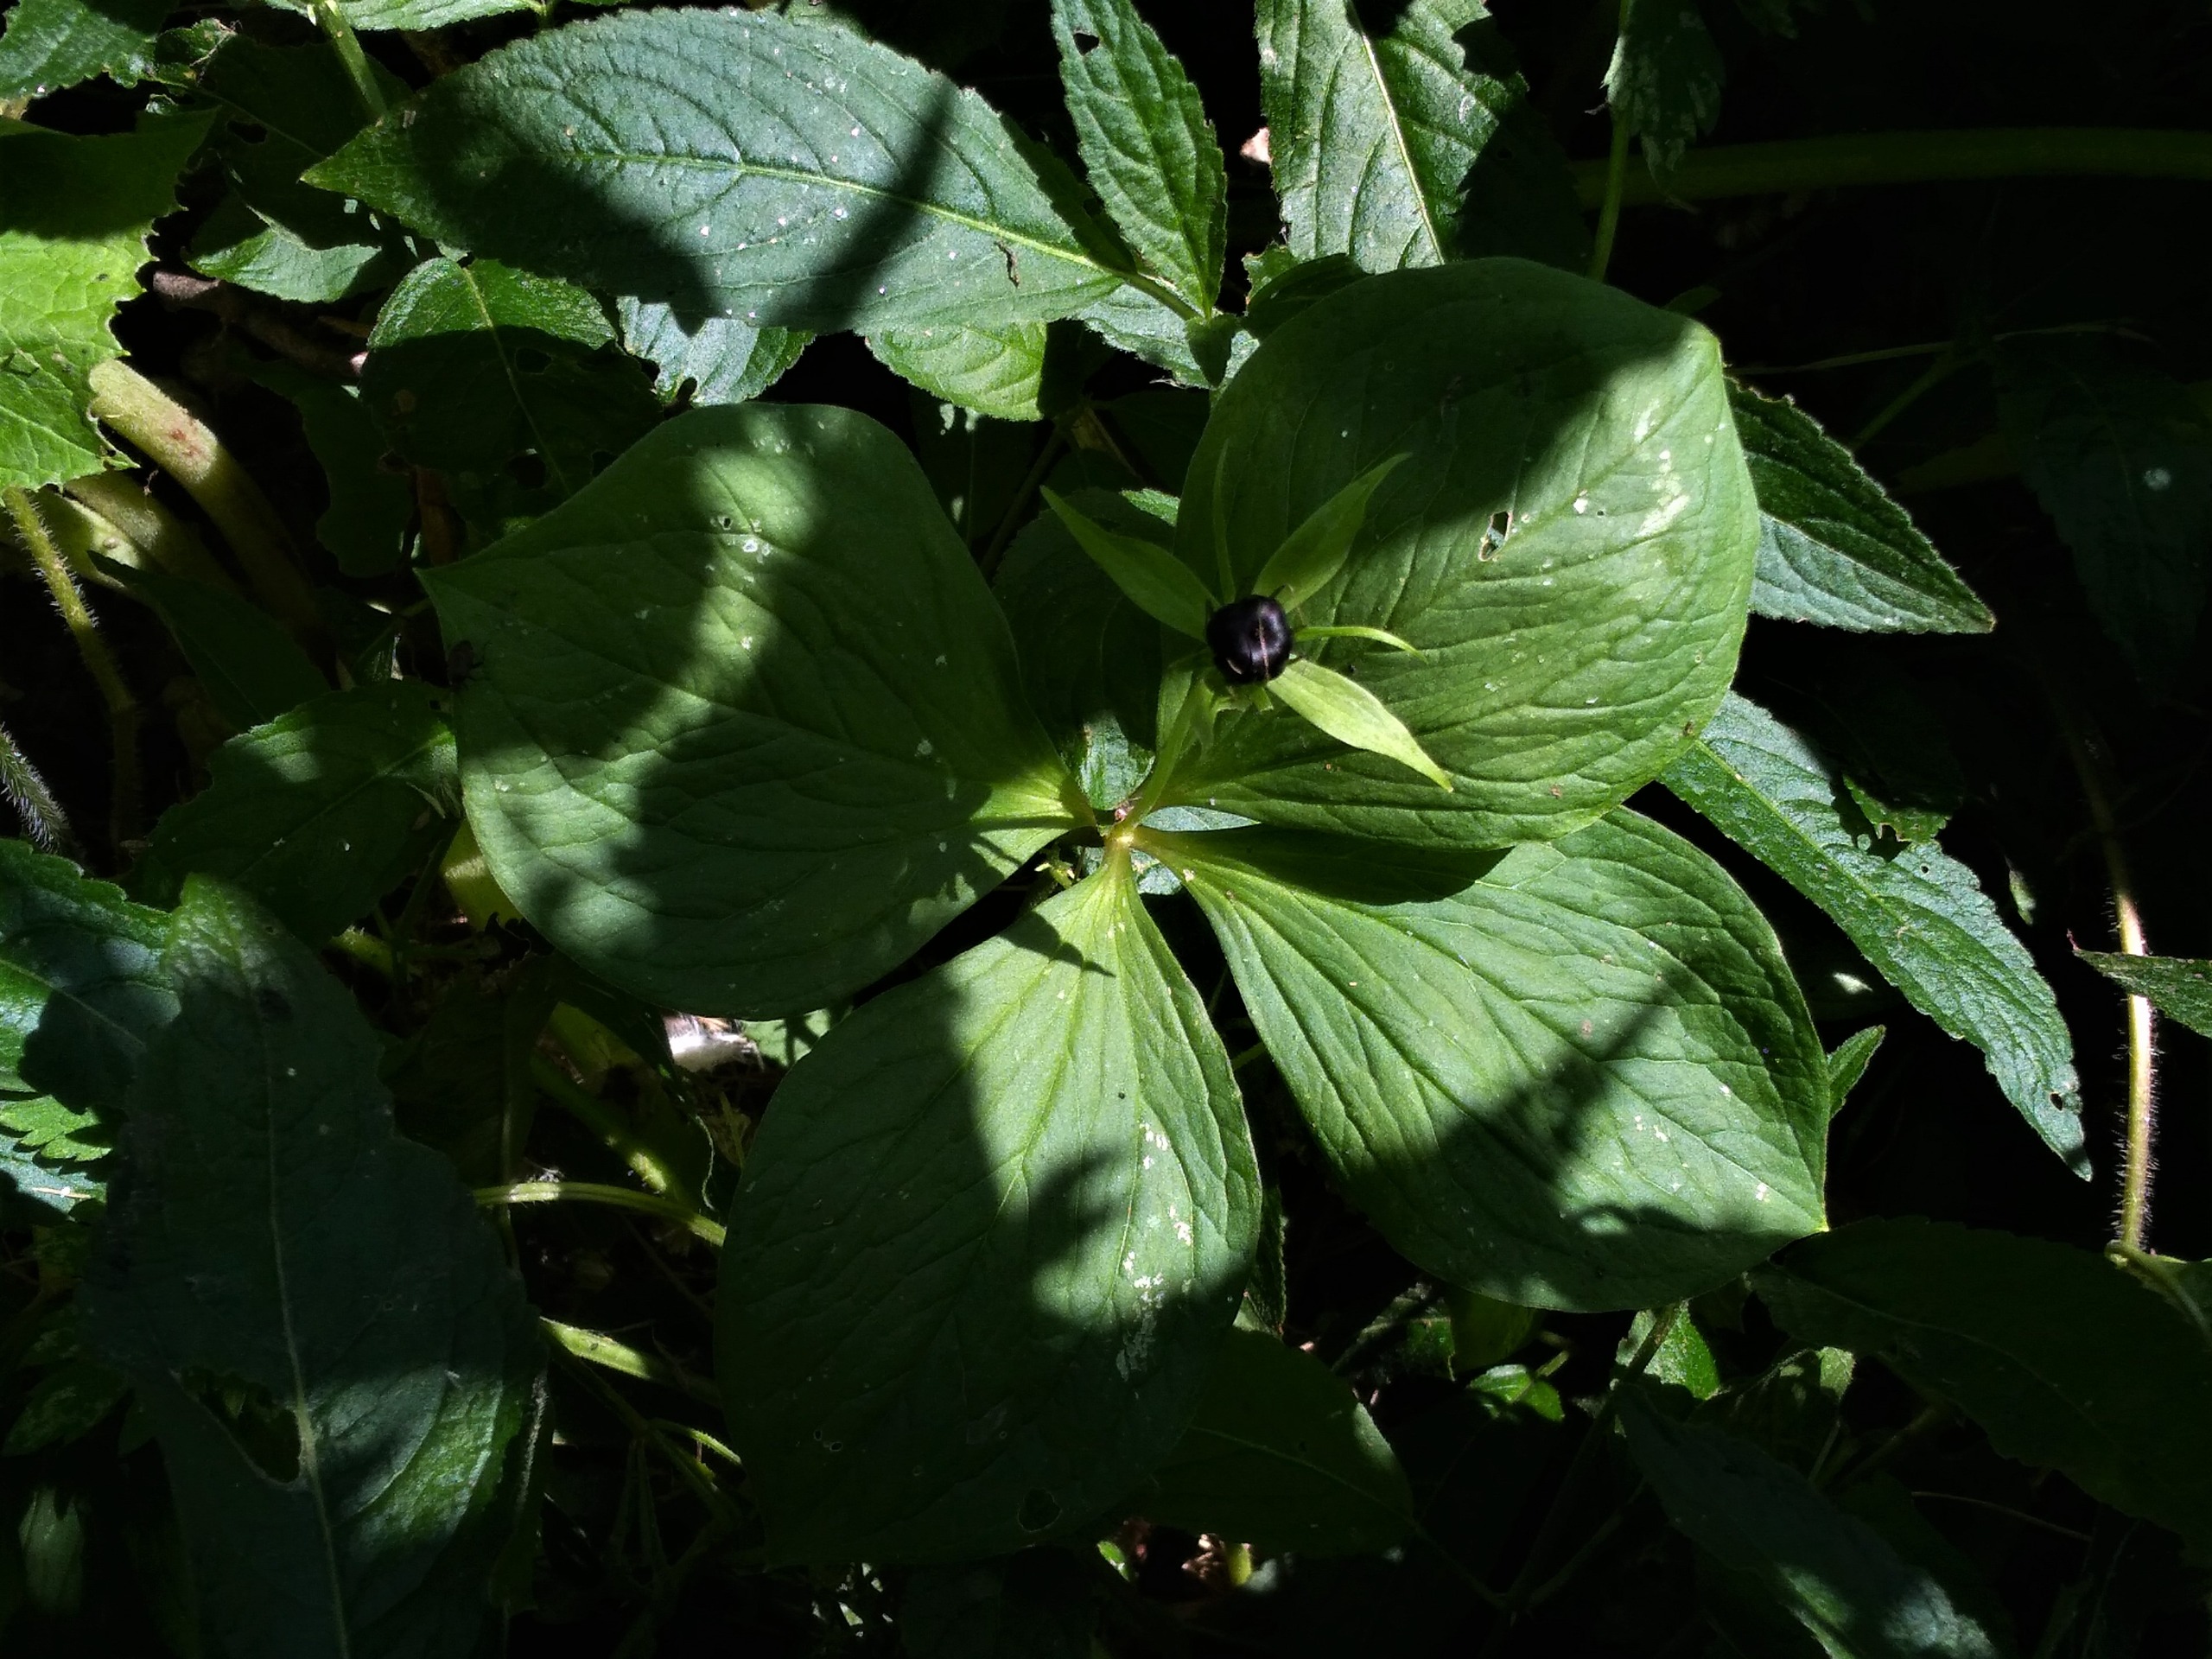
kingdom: Plantae
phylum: Tracheophyta
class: Liliopsida
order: Liliales
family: Melanthiaceae
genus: Paris
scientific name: Paris quadrifolia
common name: Firblad
